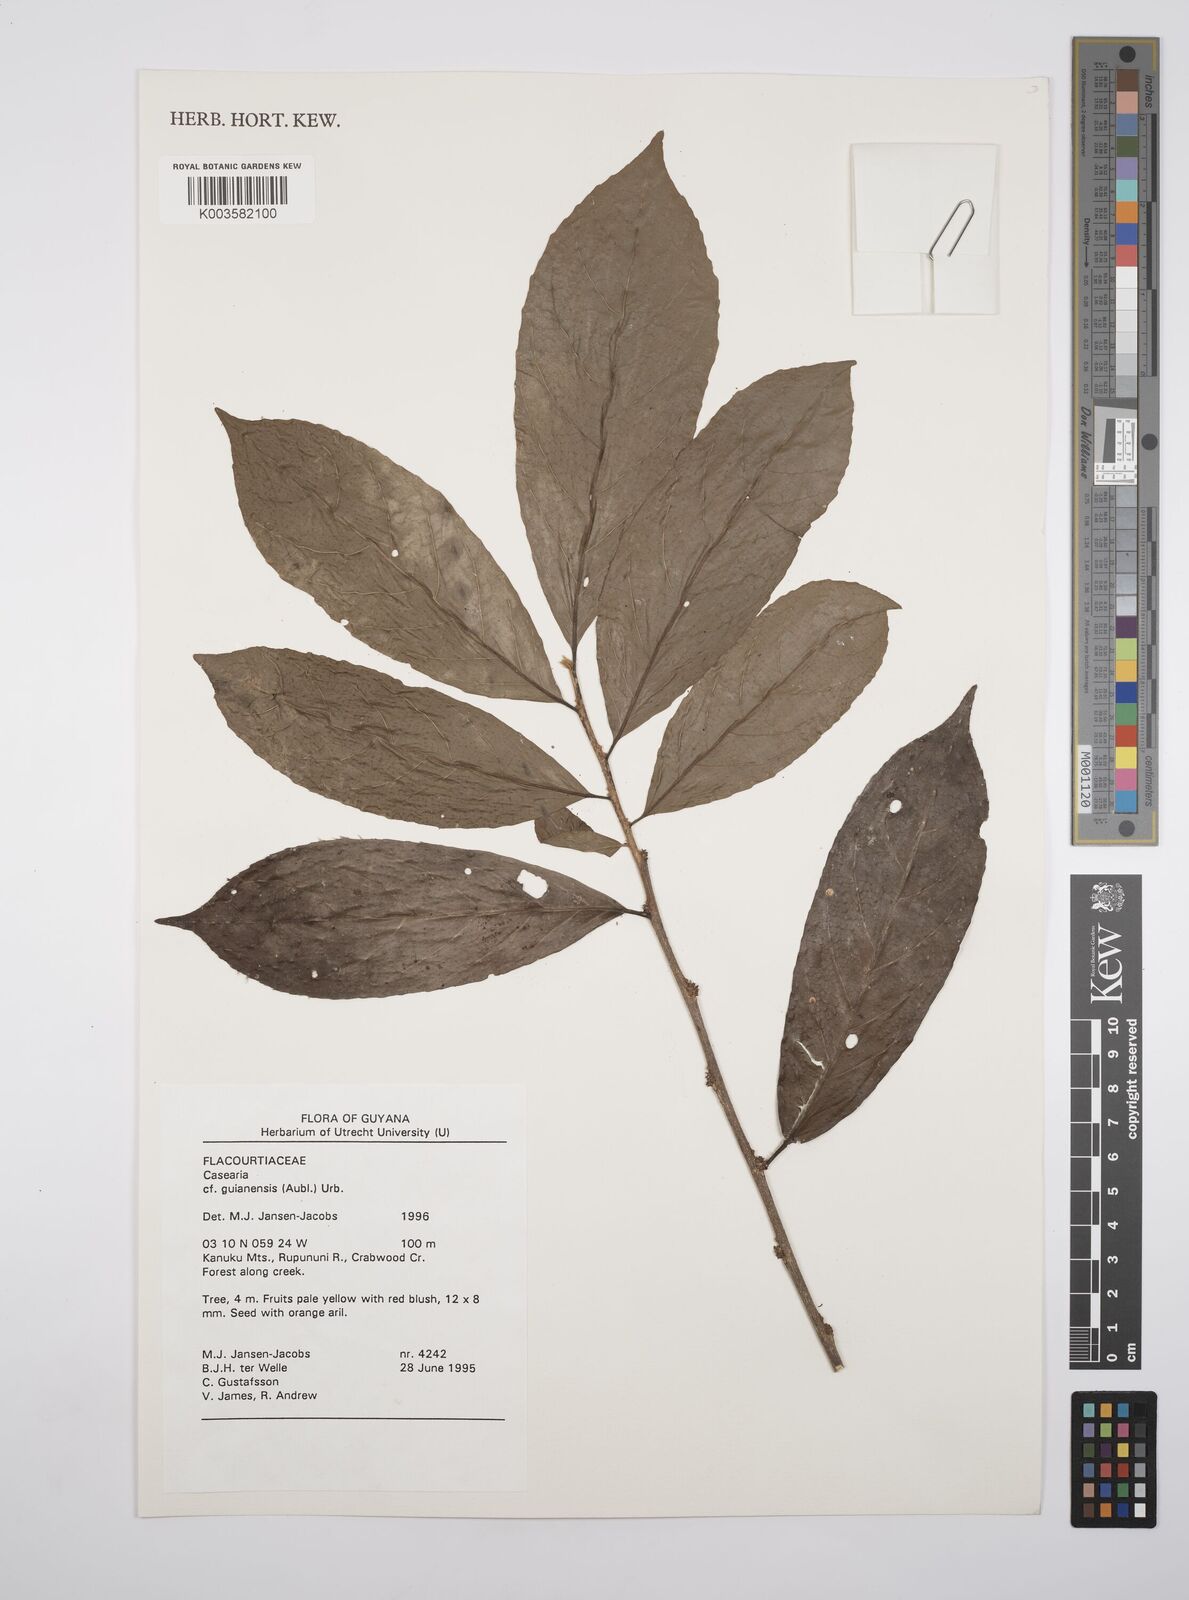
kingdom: Plantae
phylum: Tracheophyta
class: Magnoliopsida
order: Malpighiales
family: Salicaceae
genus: Casearia
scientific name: Casearia guianensis
